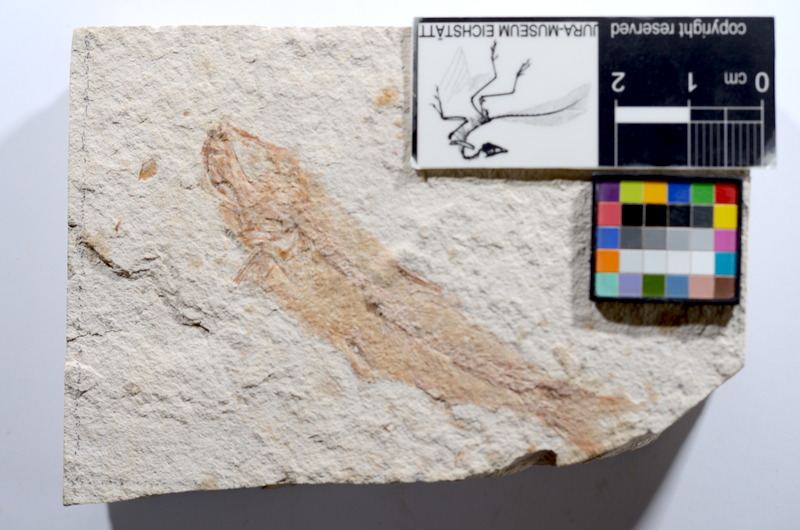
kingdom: Animalia
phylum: Chordata
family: Ascalaboidae
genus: Tharsis
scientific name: Tharsis dubius
